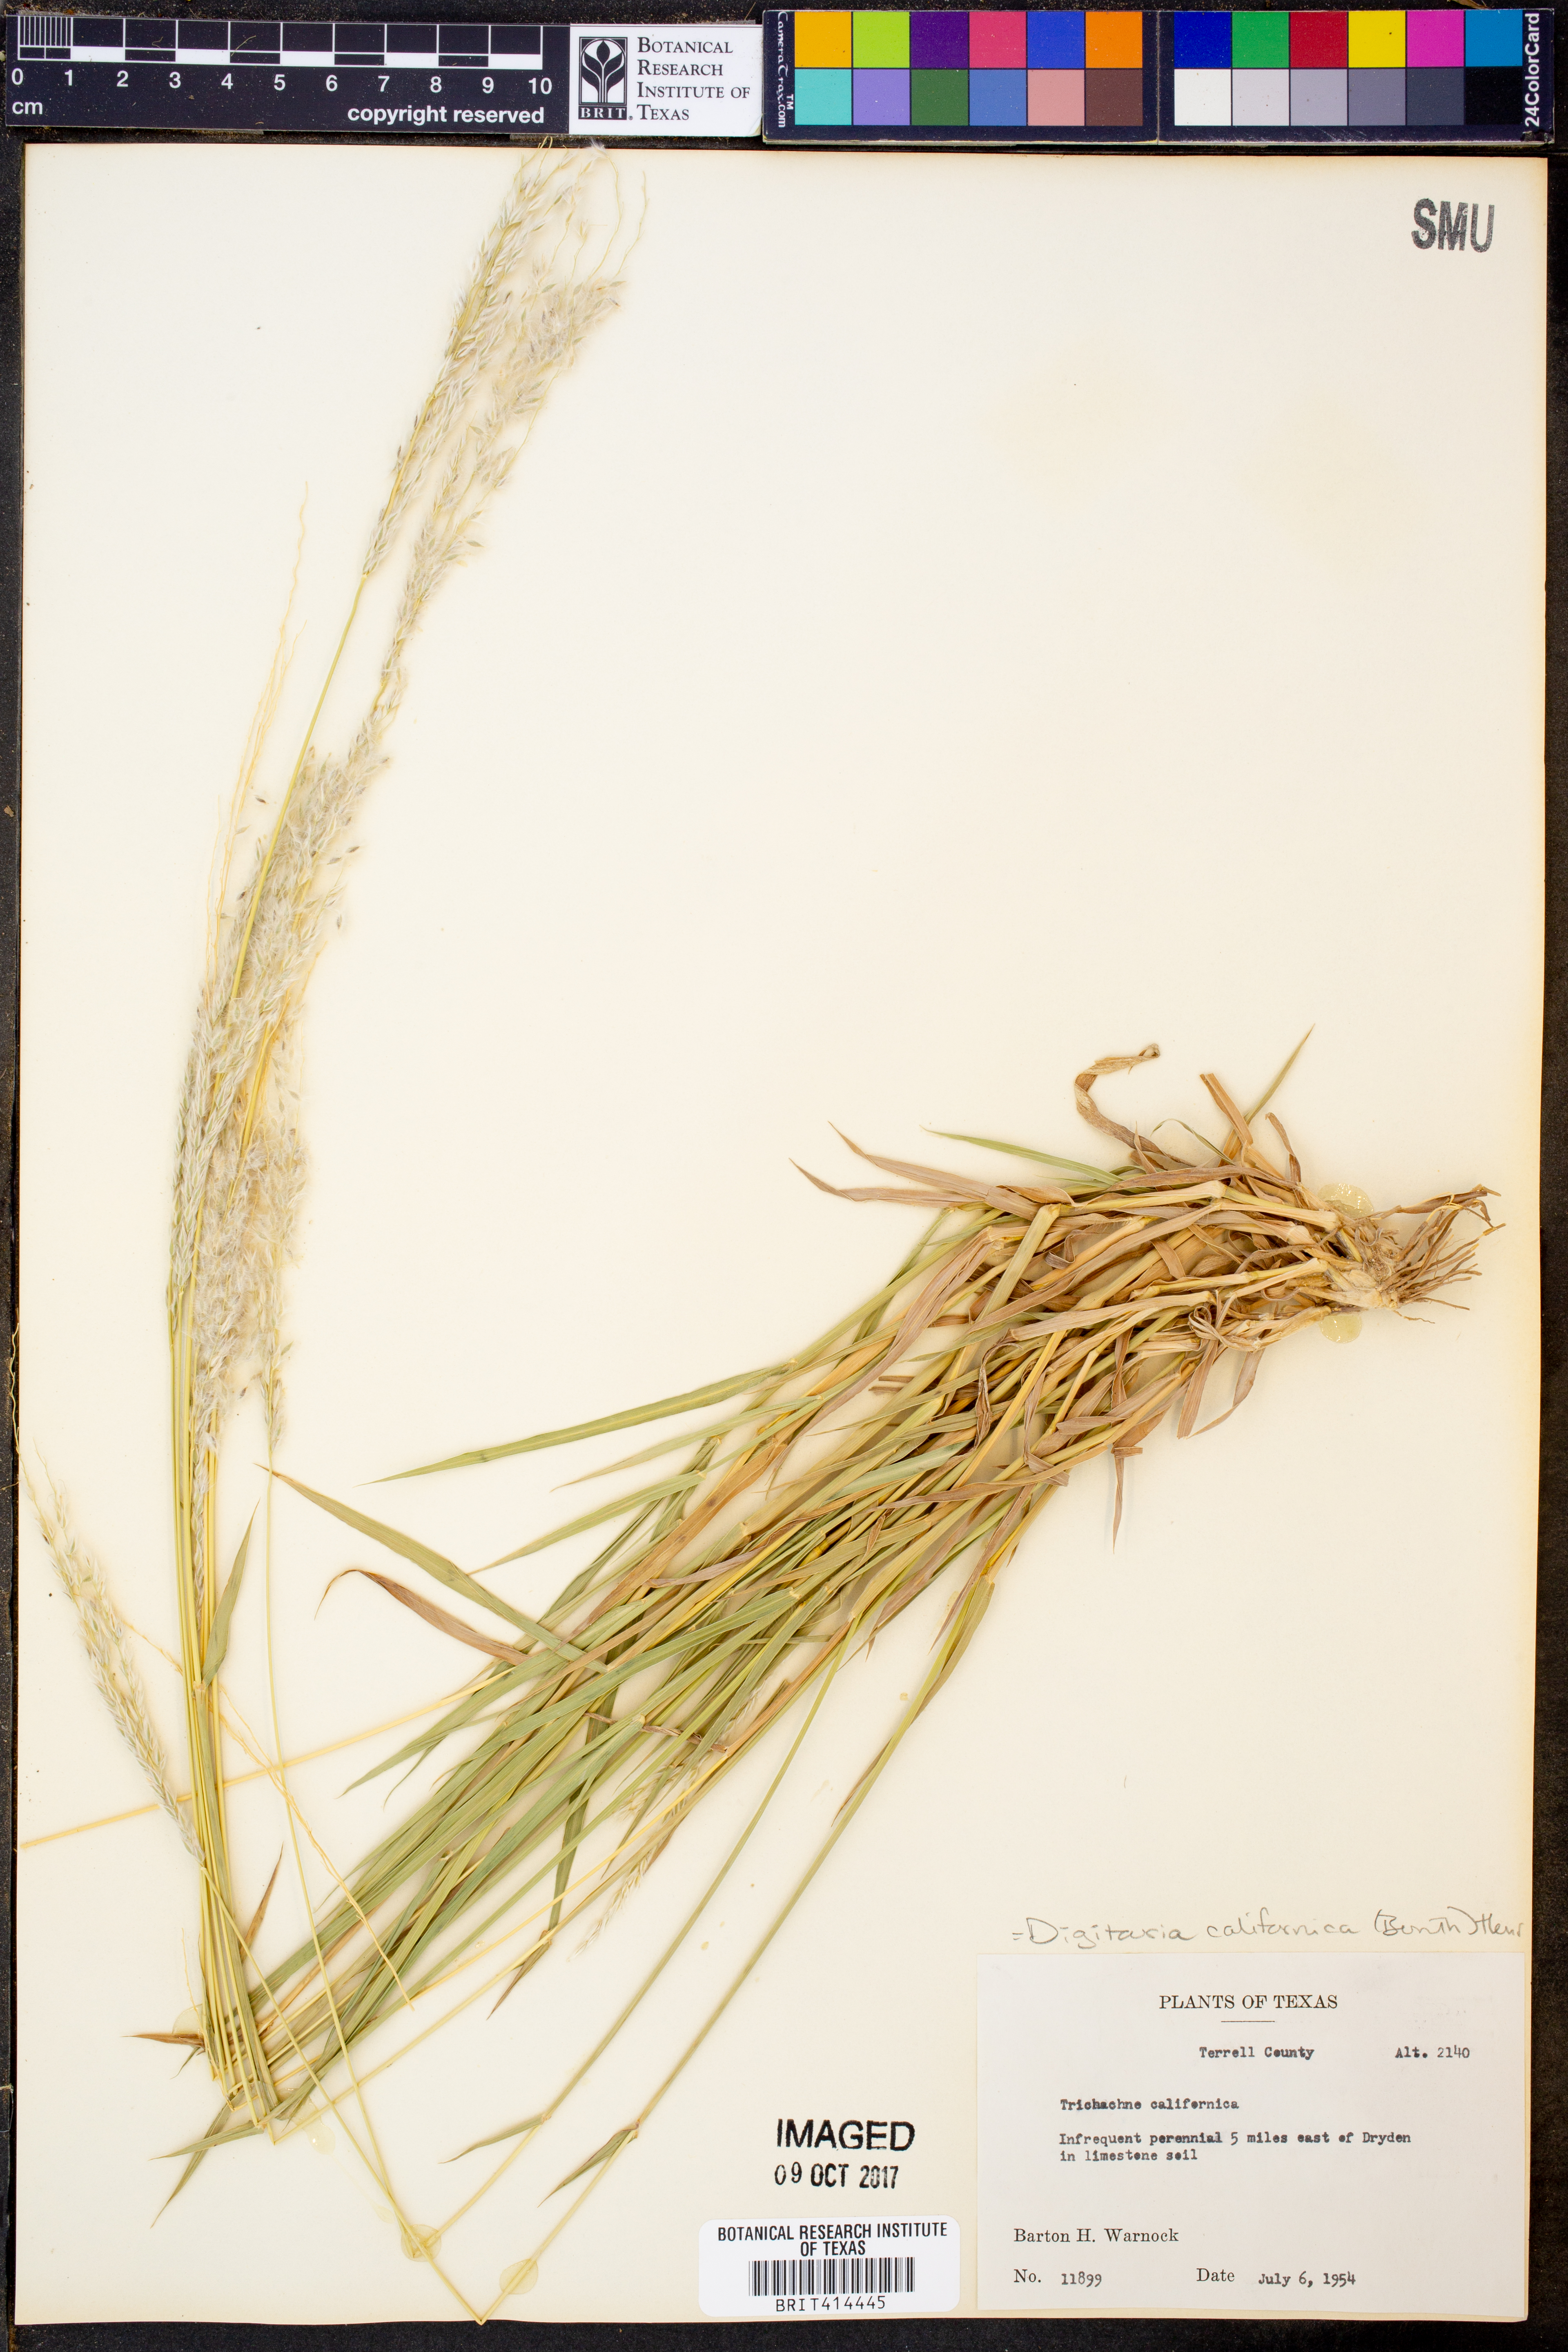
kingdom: Plantae
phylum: Tracheophyta
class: Liliopsida
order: Poales
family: Poaceae
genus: Digitaria
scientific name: Digitaria californica
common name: Arizona cottontop
